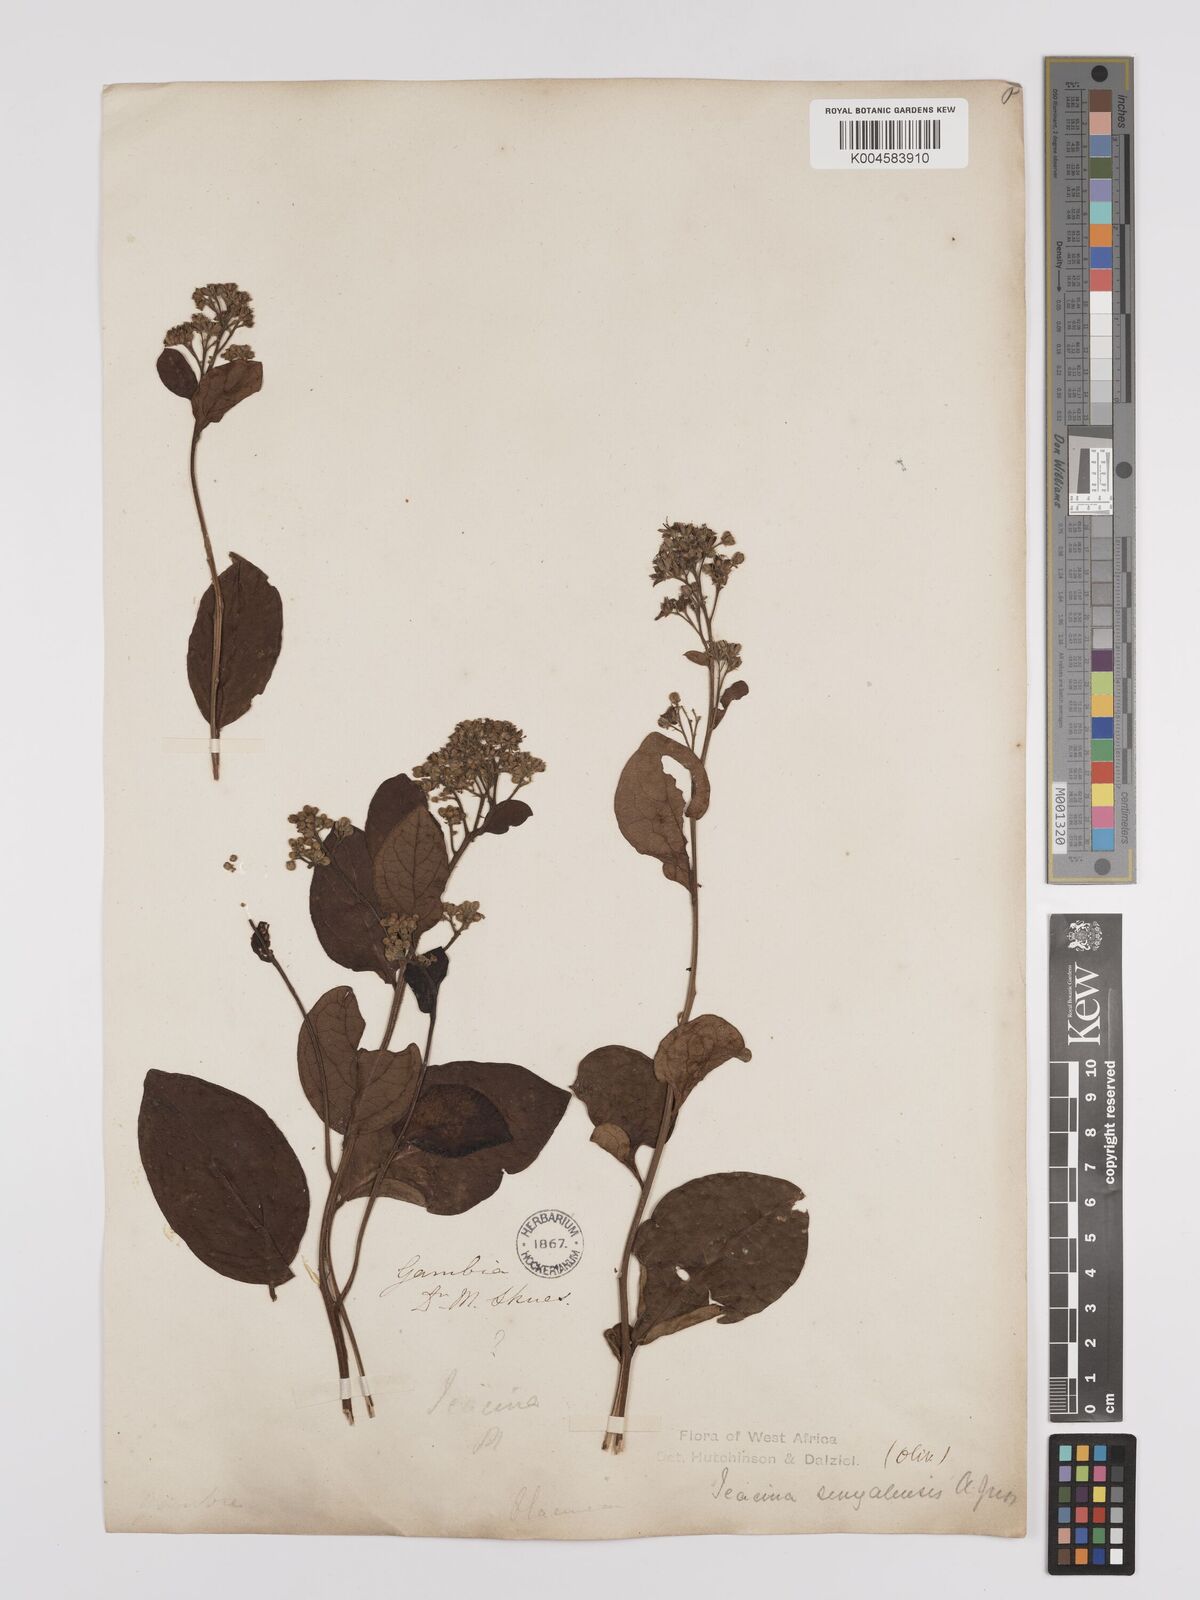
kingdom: Plantae
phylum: Tracheophyta
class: Magnoliopsida
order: Icacinales
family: Icacinaceae
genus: Icacina
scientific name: Icacina oliviformis
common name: False yam
